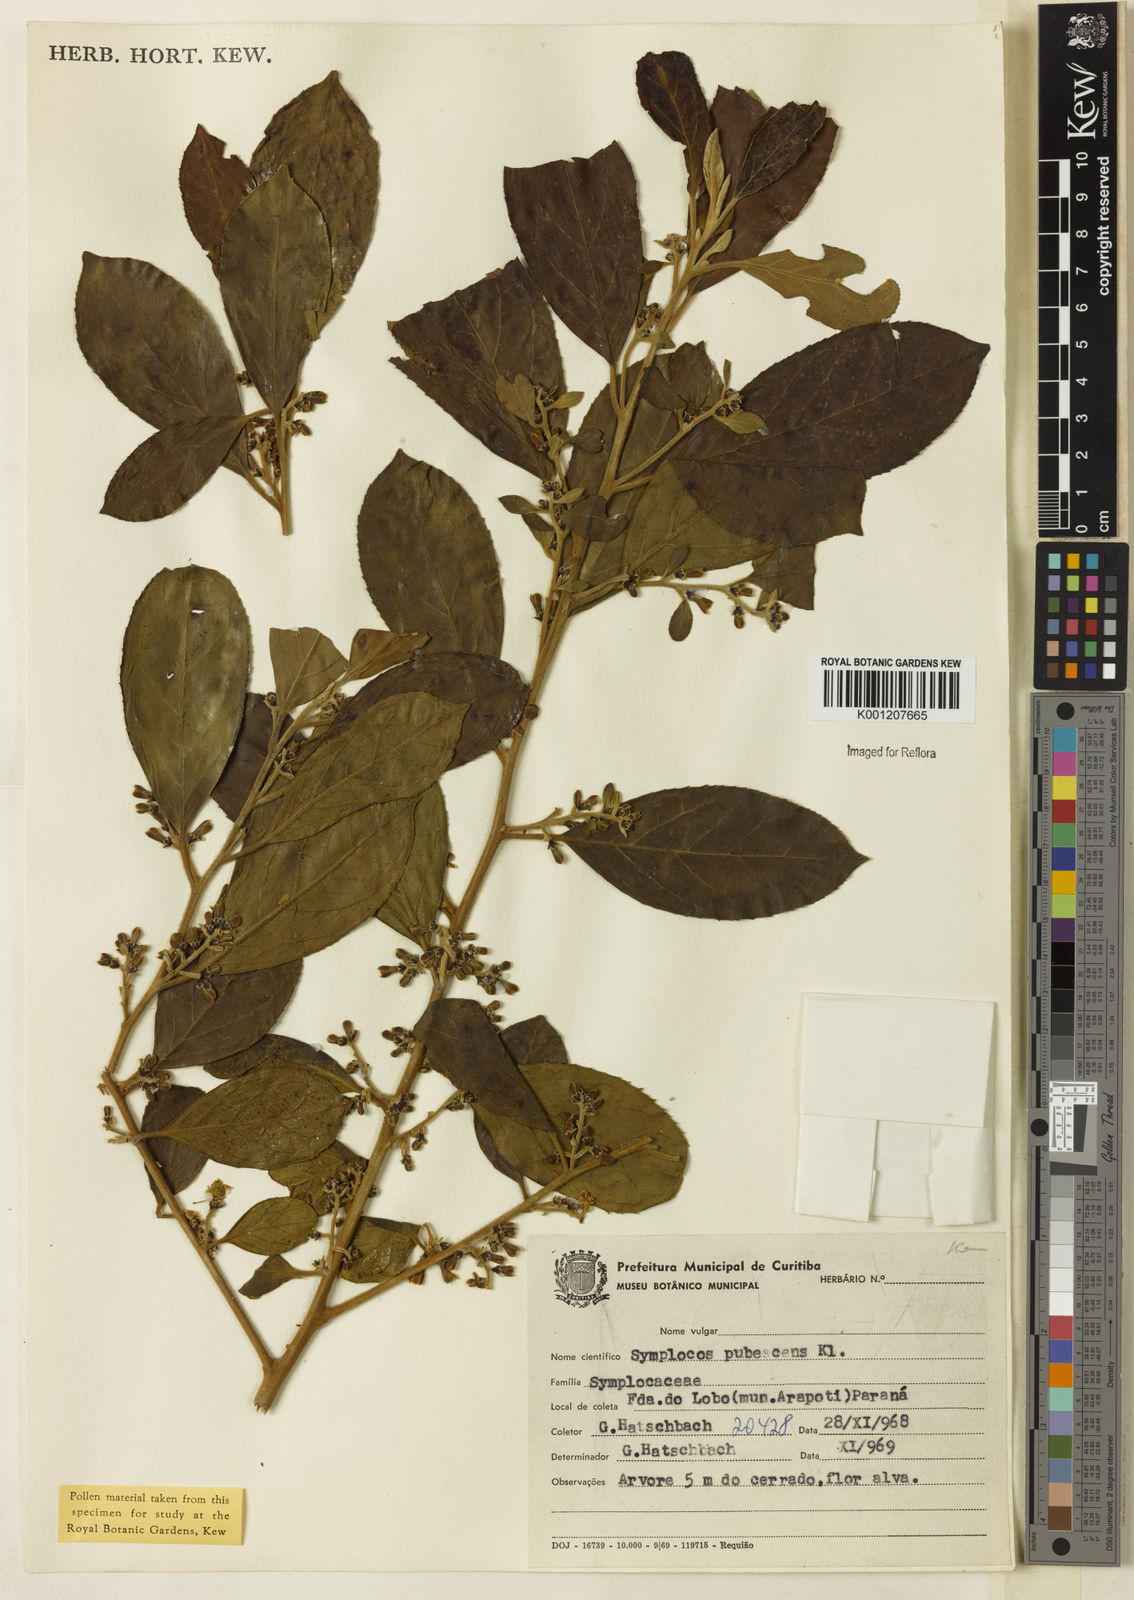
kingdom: Plantae
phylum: Tracheophyta
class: Magnoliopsida
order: Ericales
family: Symplocaceae
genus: Symplocos
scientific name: Symplocos pubescens
